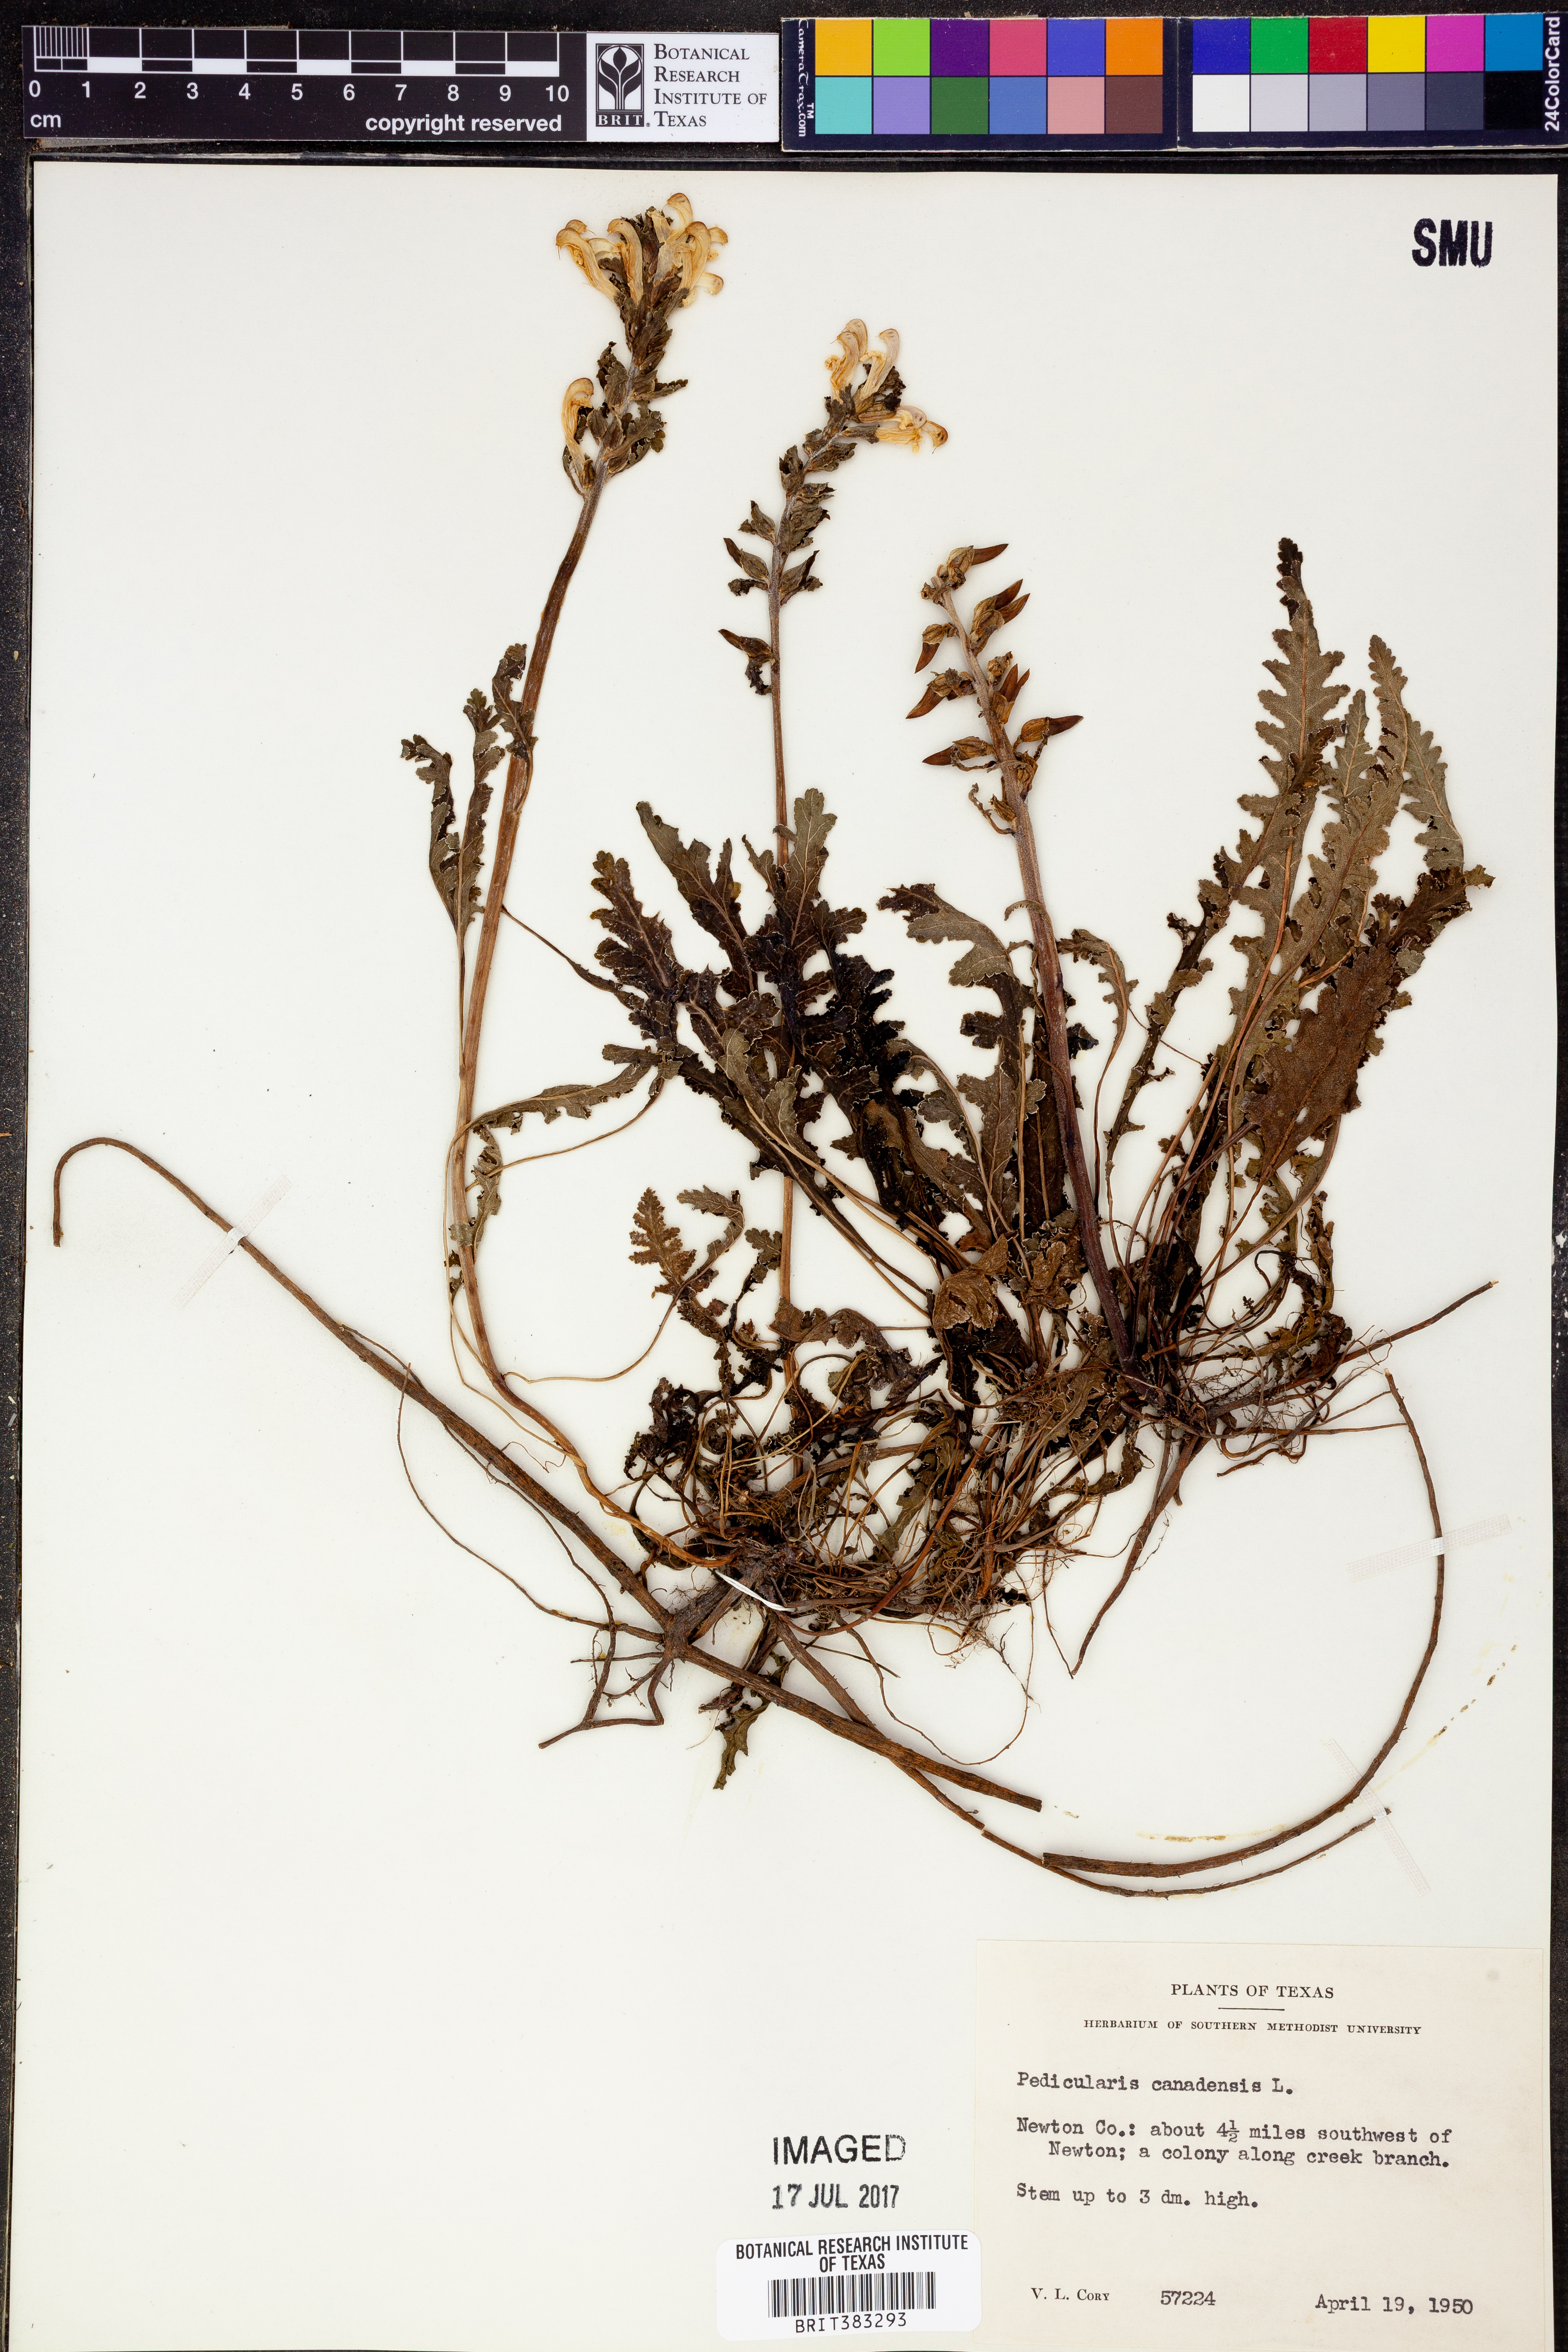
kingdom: Plantae
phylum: Tracheophyta
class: Magnoliopsida
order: Lamiales
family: Orobanchaceae
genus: Pedicularis
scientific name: Pedicularis canadensis
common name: Early lousewort
